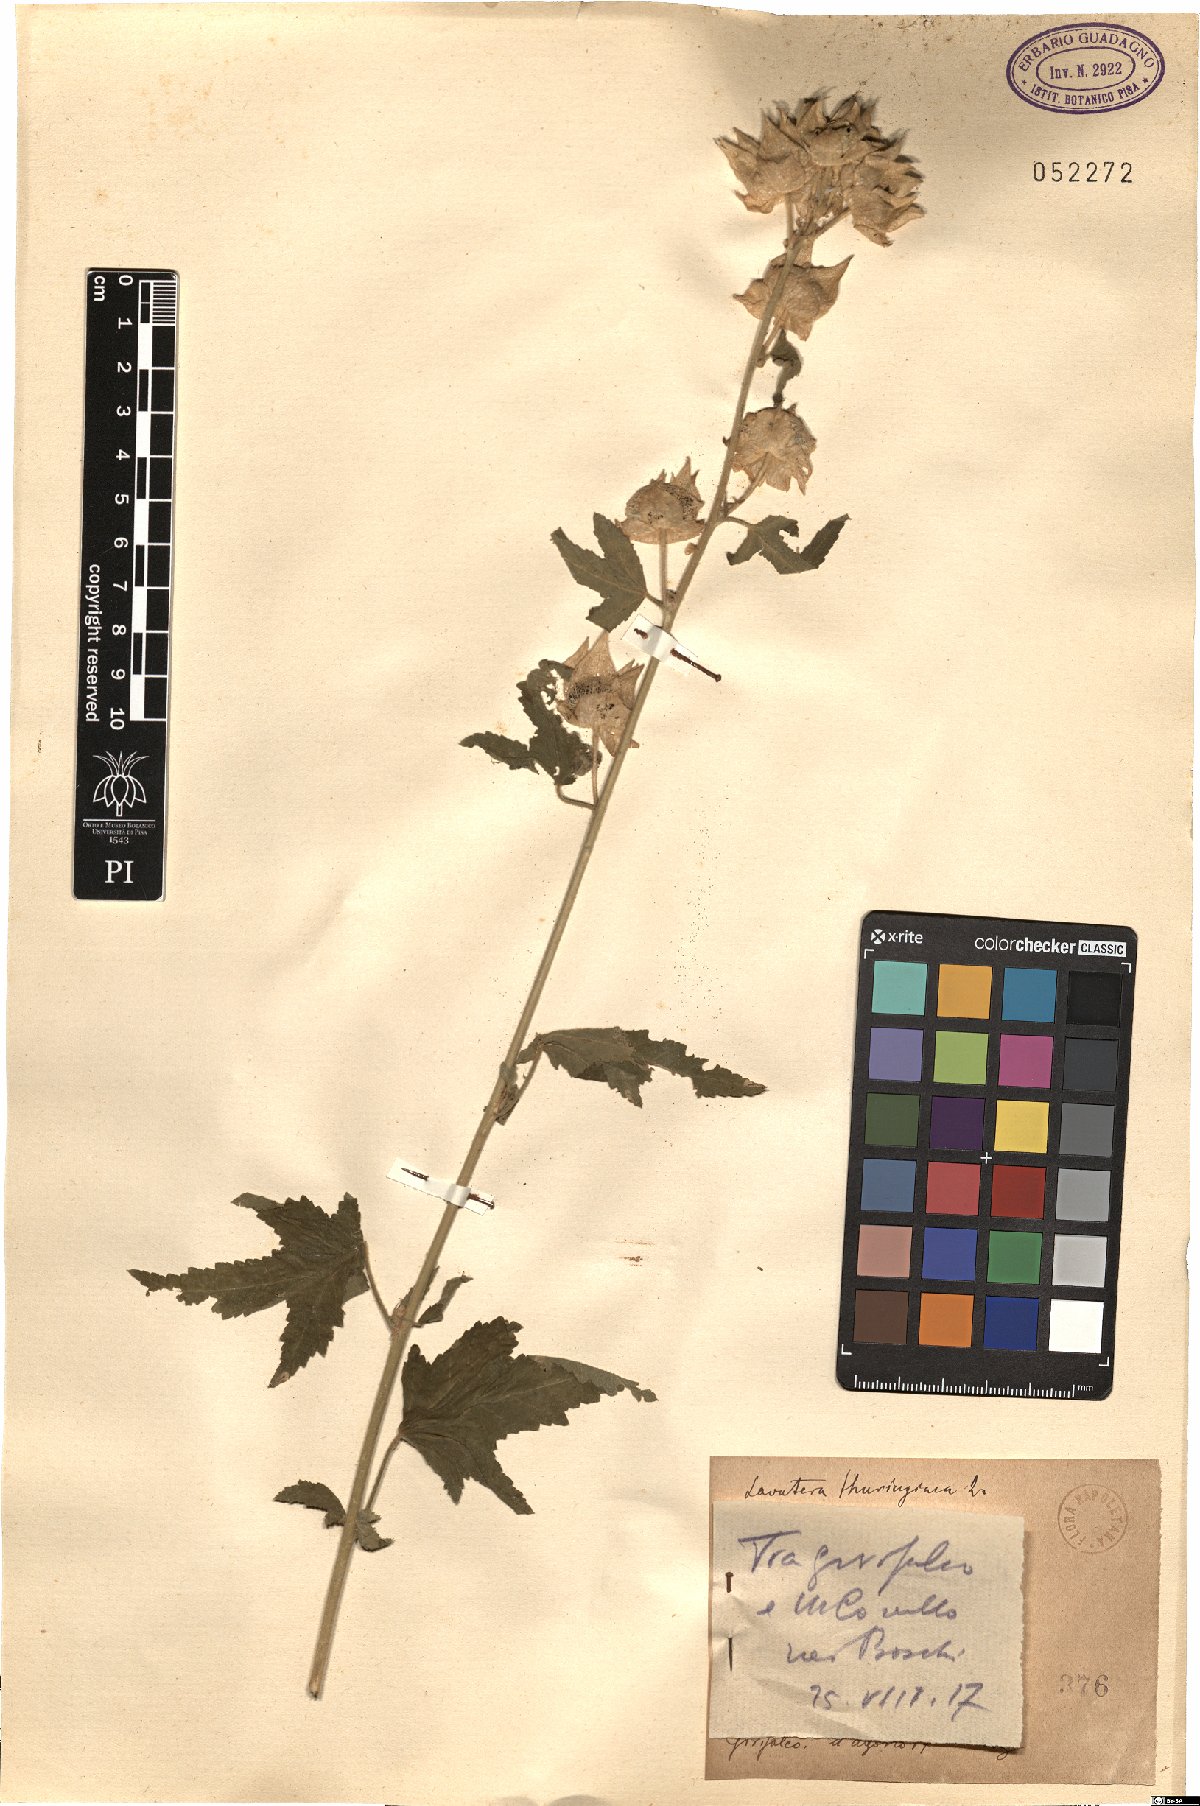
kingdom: Plantae
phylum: Tracheophyta
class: Magnoliopsida
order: Malvales
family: Malvaceae
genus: Malva
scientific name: Malva thuringiaca
